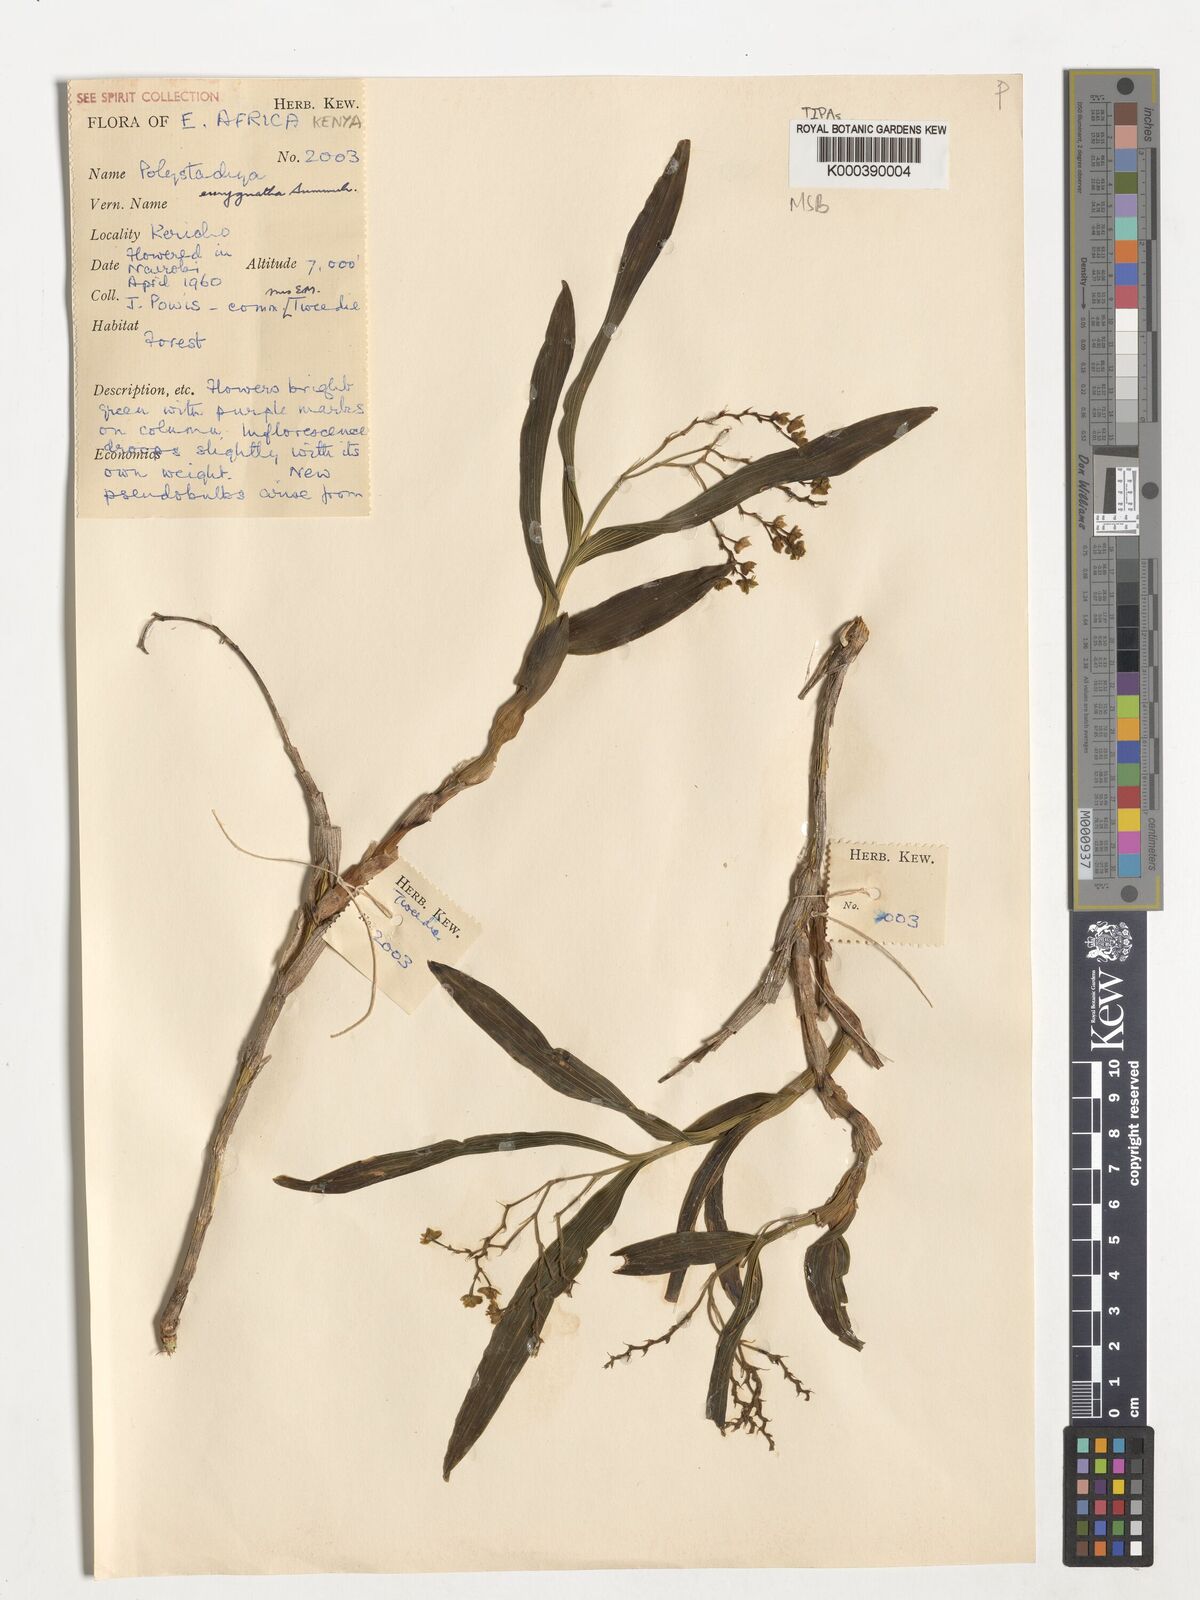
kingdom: Plantae
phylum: Tracheophyta
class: Liliopsida
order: Asparagales
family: Orchidaceae
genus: Polystachya
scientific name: Polystachya eurygnatha
